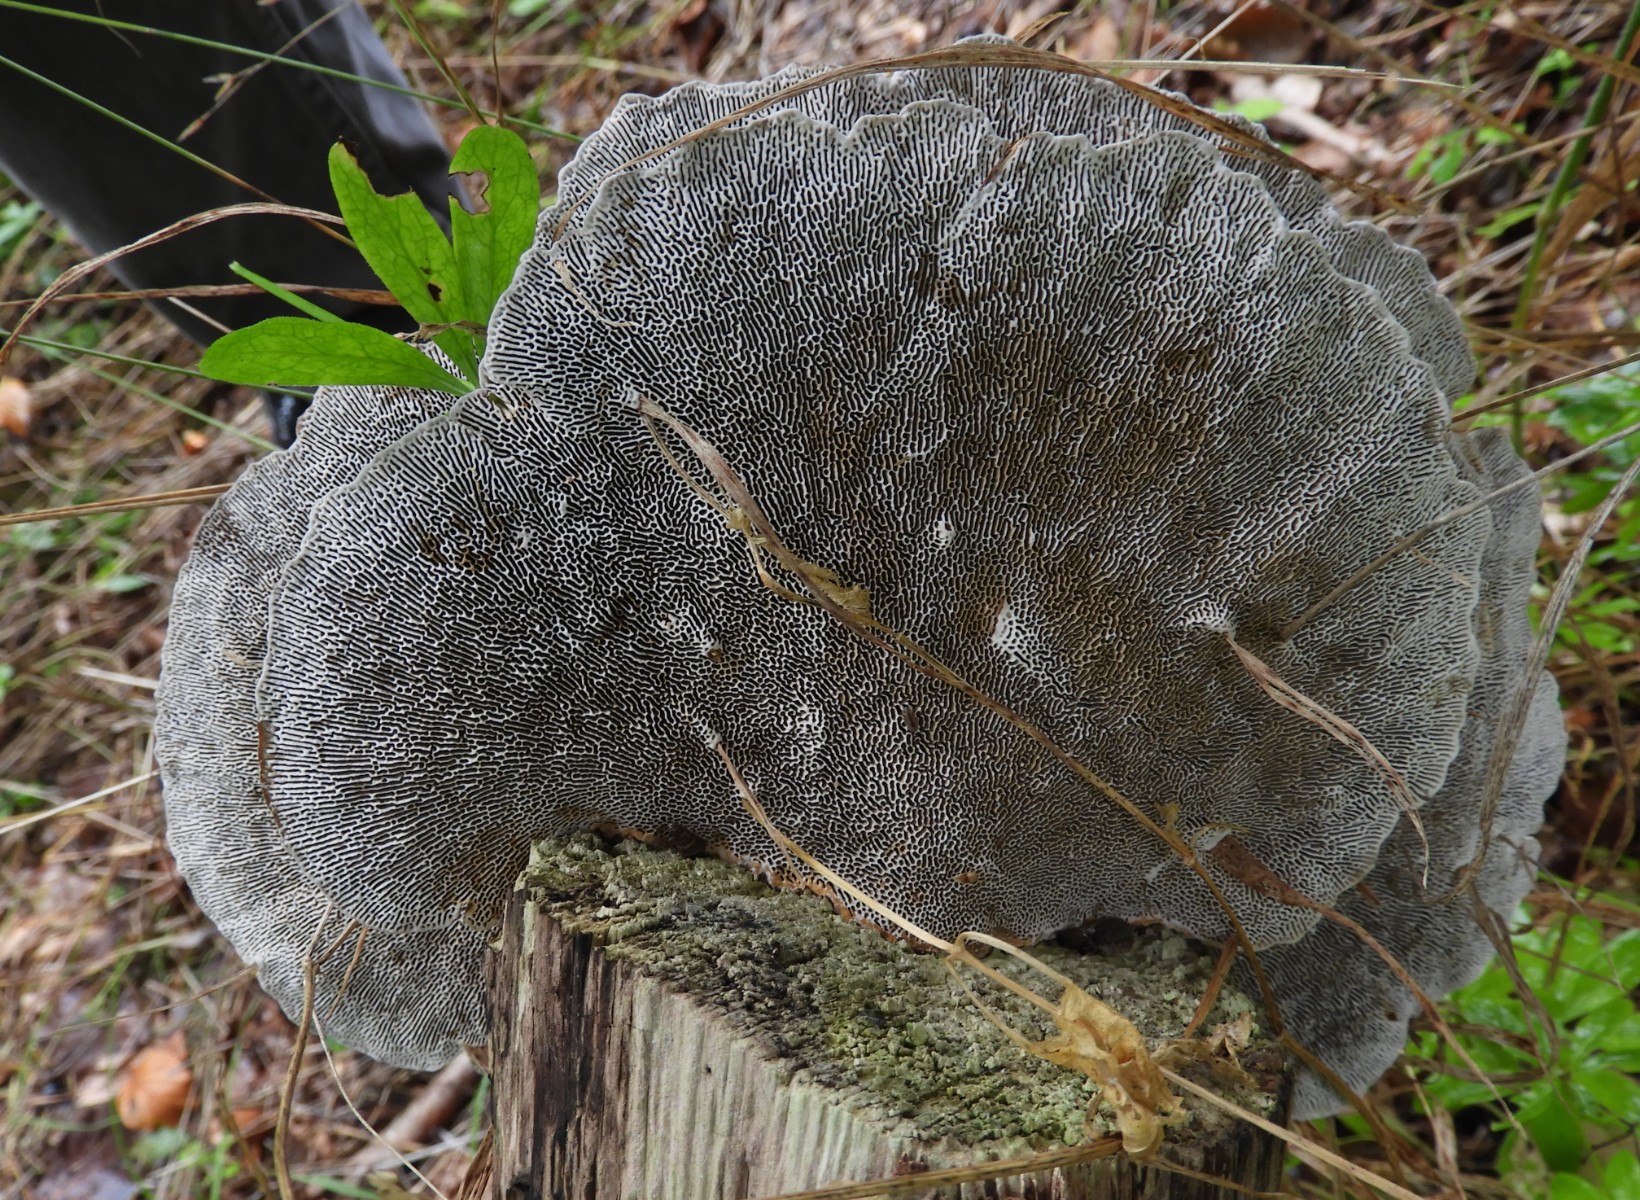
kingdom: Fungi
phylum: Basidiomycota
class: Agaricomycetes
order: Polyporales
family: Polyporaceae
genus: Daedaleopsis
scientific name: Daedaleopsis confragosa
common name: rødmende læderporesvamp
